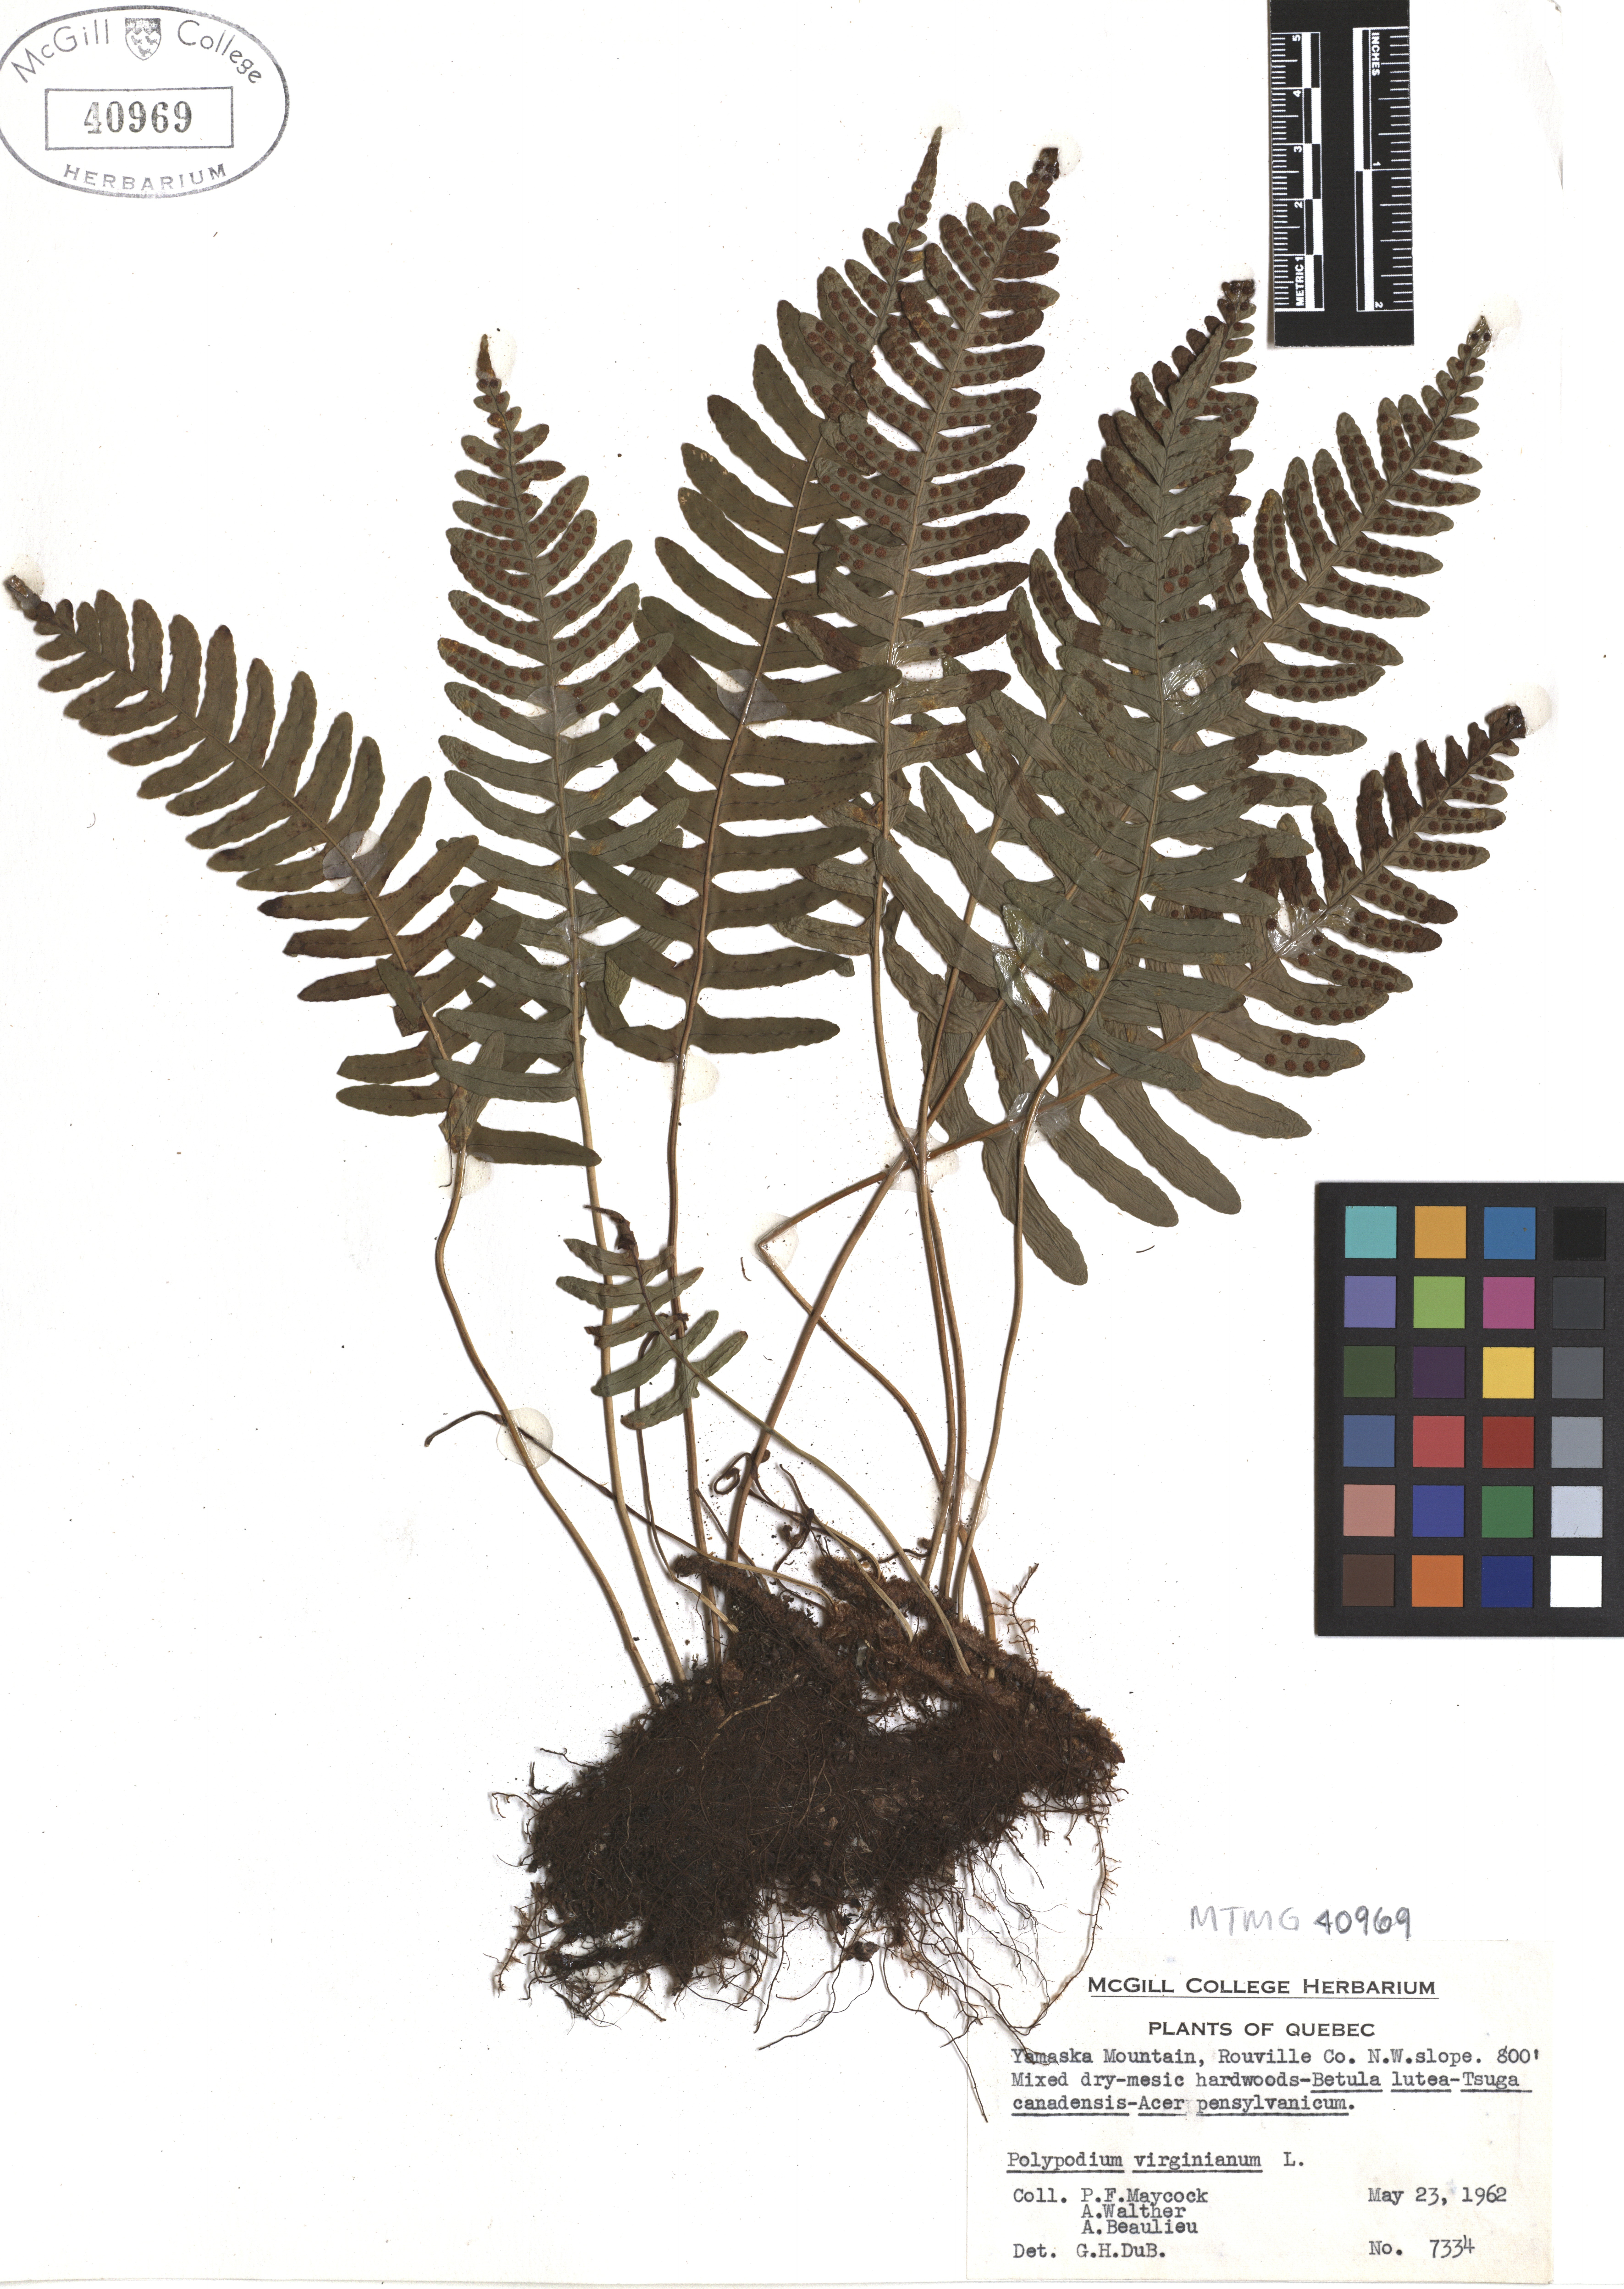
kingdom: Plantae
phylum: Tracheophyta
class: Polypodiopsida
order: Polypodiales
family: Polypodiaceae
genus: Polypodium
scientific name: Polypodium virginianum
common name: American wall fern
